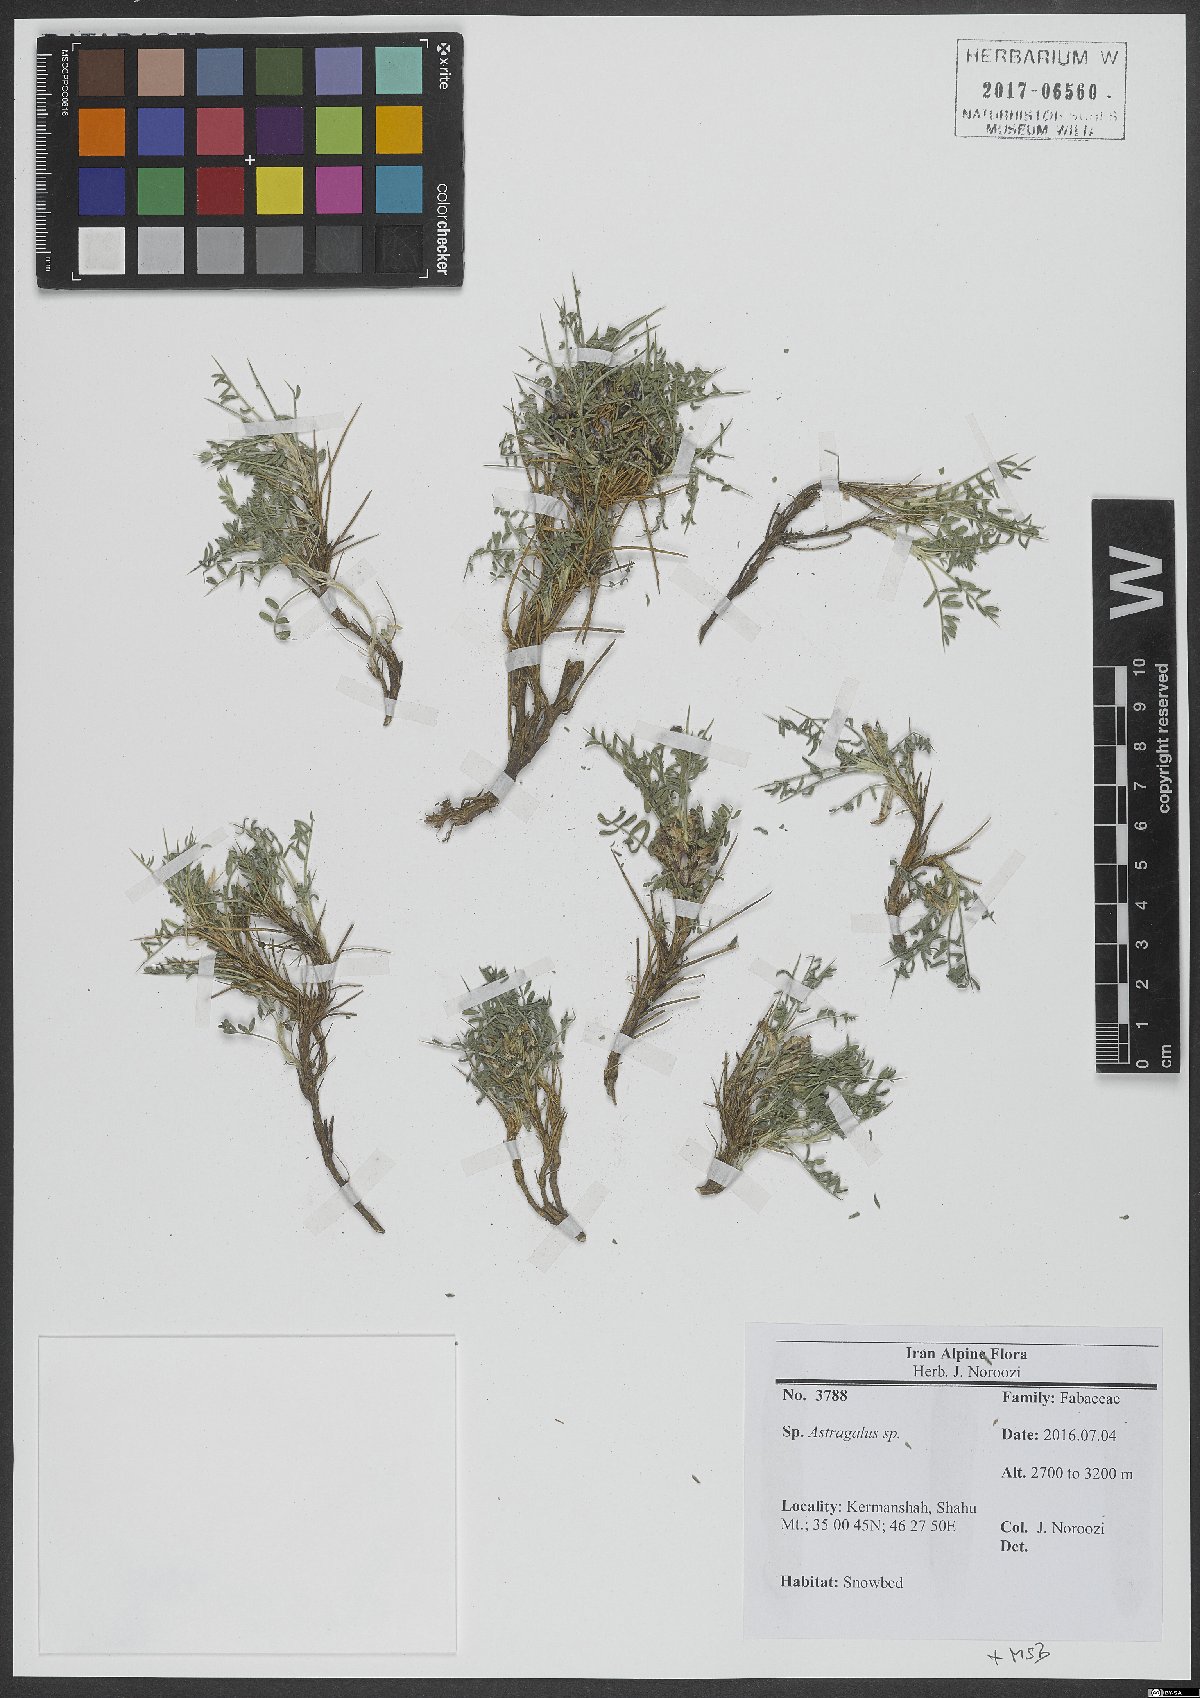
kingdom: Plantae
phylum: Tracheophyta
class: Magnoliopsida
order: Fabales
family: Fabaceae
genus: Astragalus
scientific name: Astragalus
